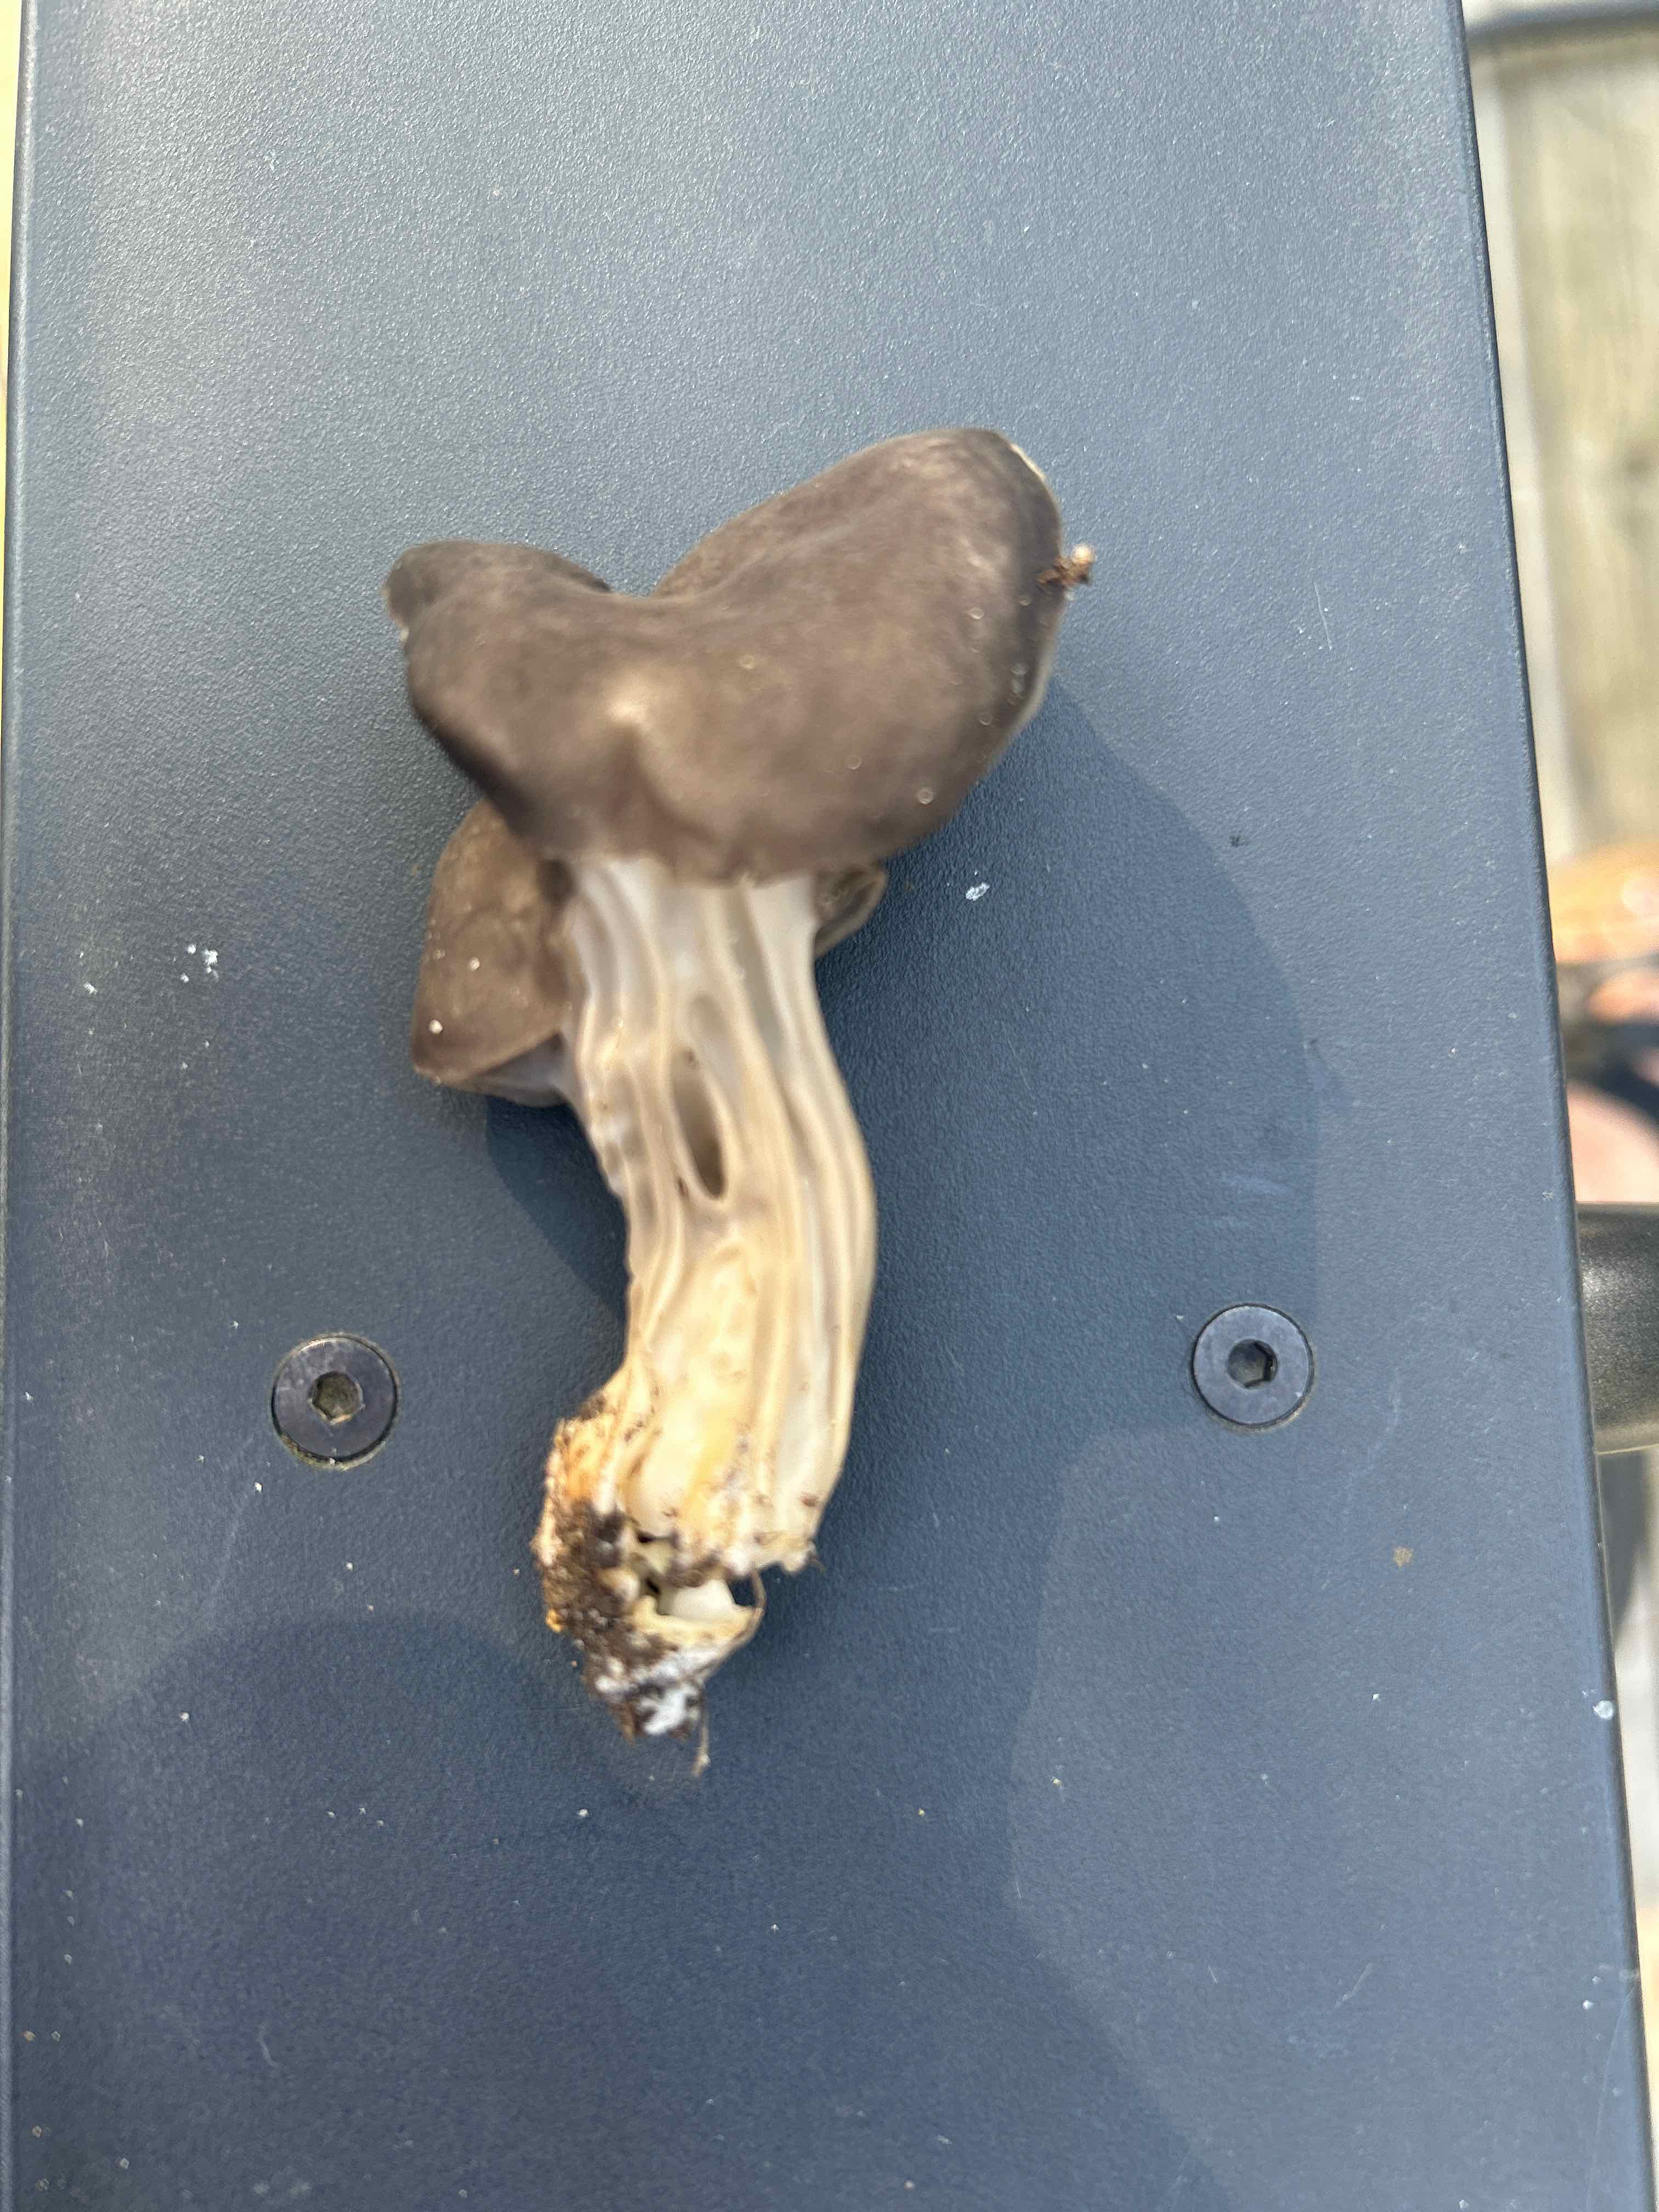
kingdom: Fungi
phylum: Ascomycota
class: Pezizomycetes
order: Pezizales
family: Helvellaceae
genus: Helvella
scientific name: Helvella lacunosa
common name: grubet foldhat
